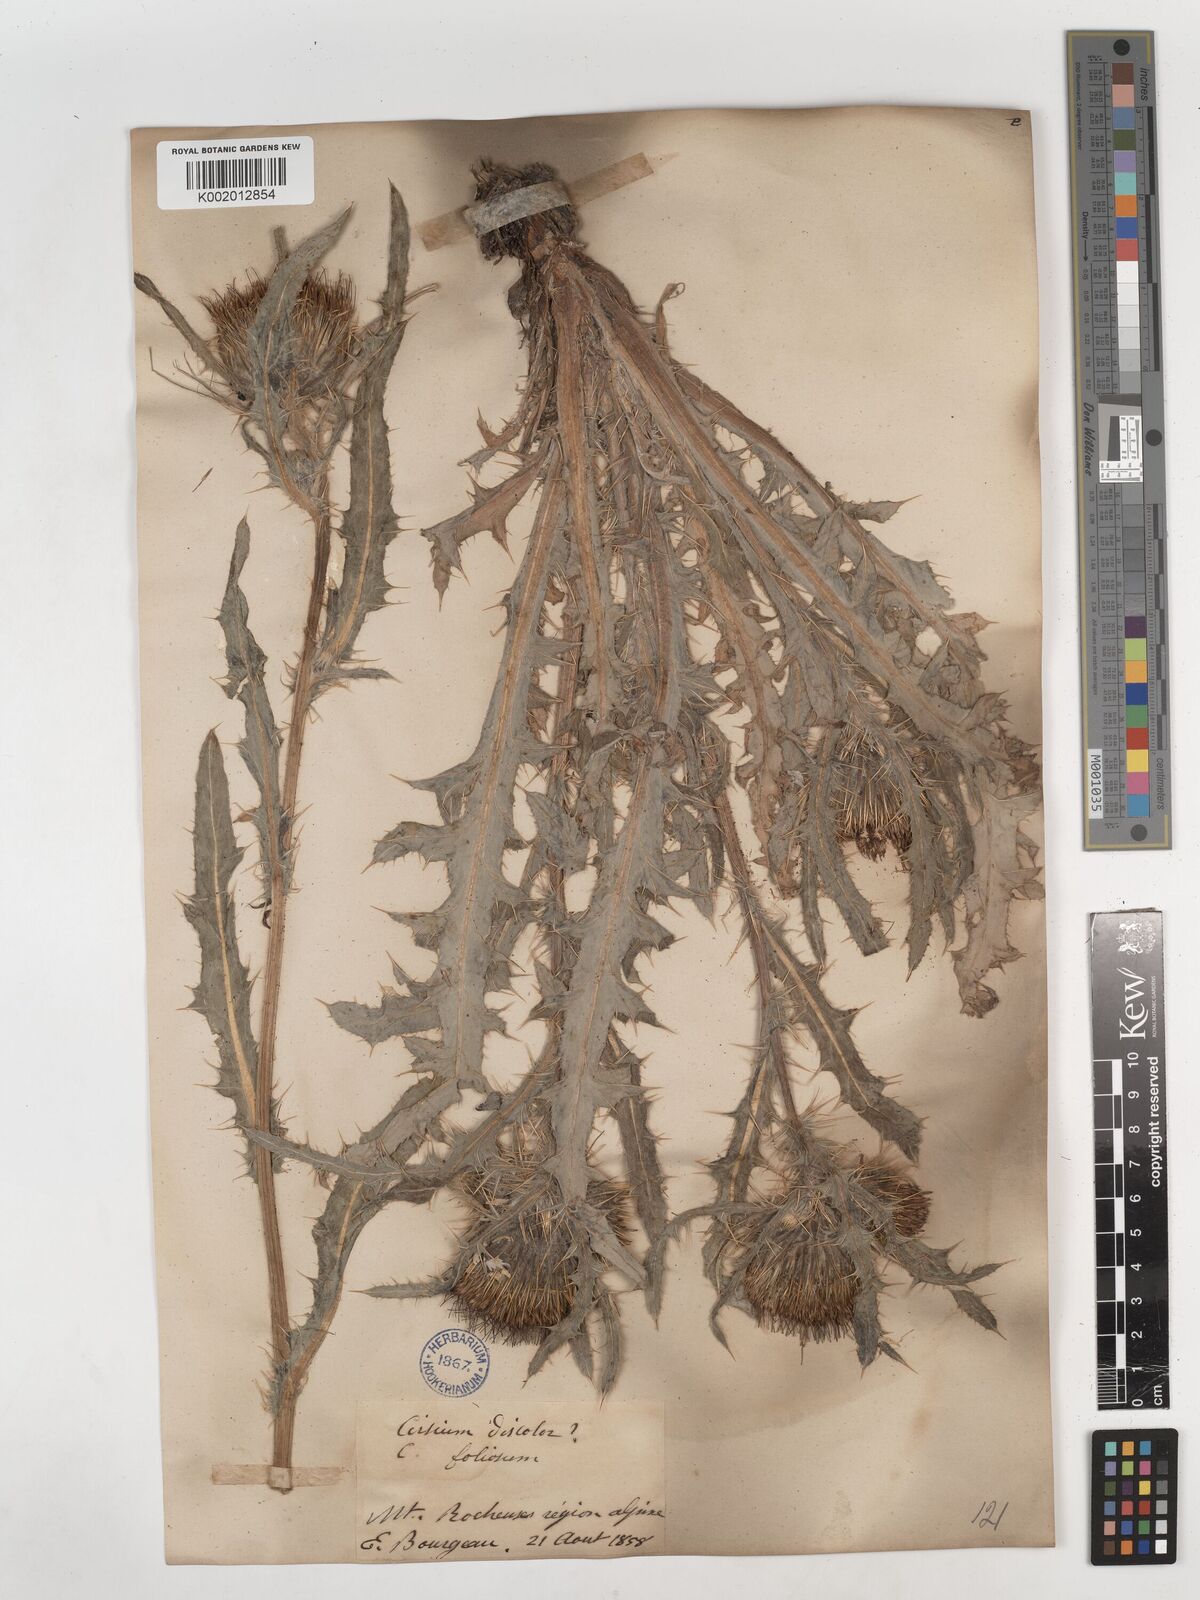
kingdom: Plantae
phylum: Tracheophyta
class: Magnoliopsida
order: Asterales
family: Asteraceae
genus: Cirsium
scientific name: Cirsium
